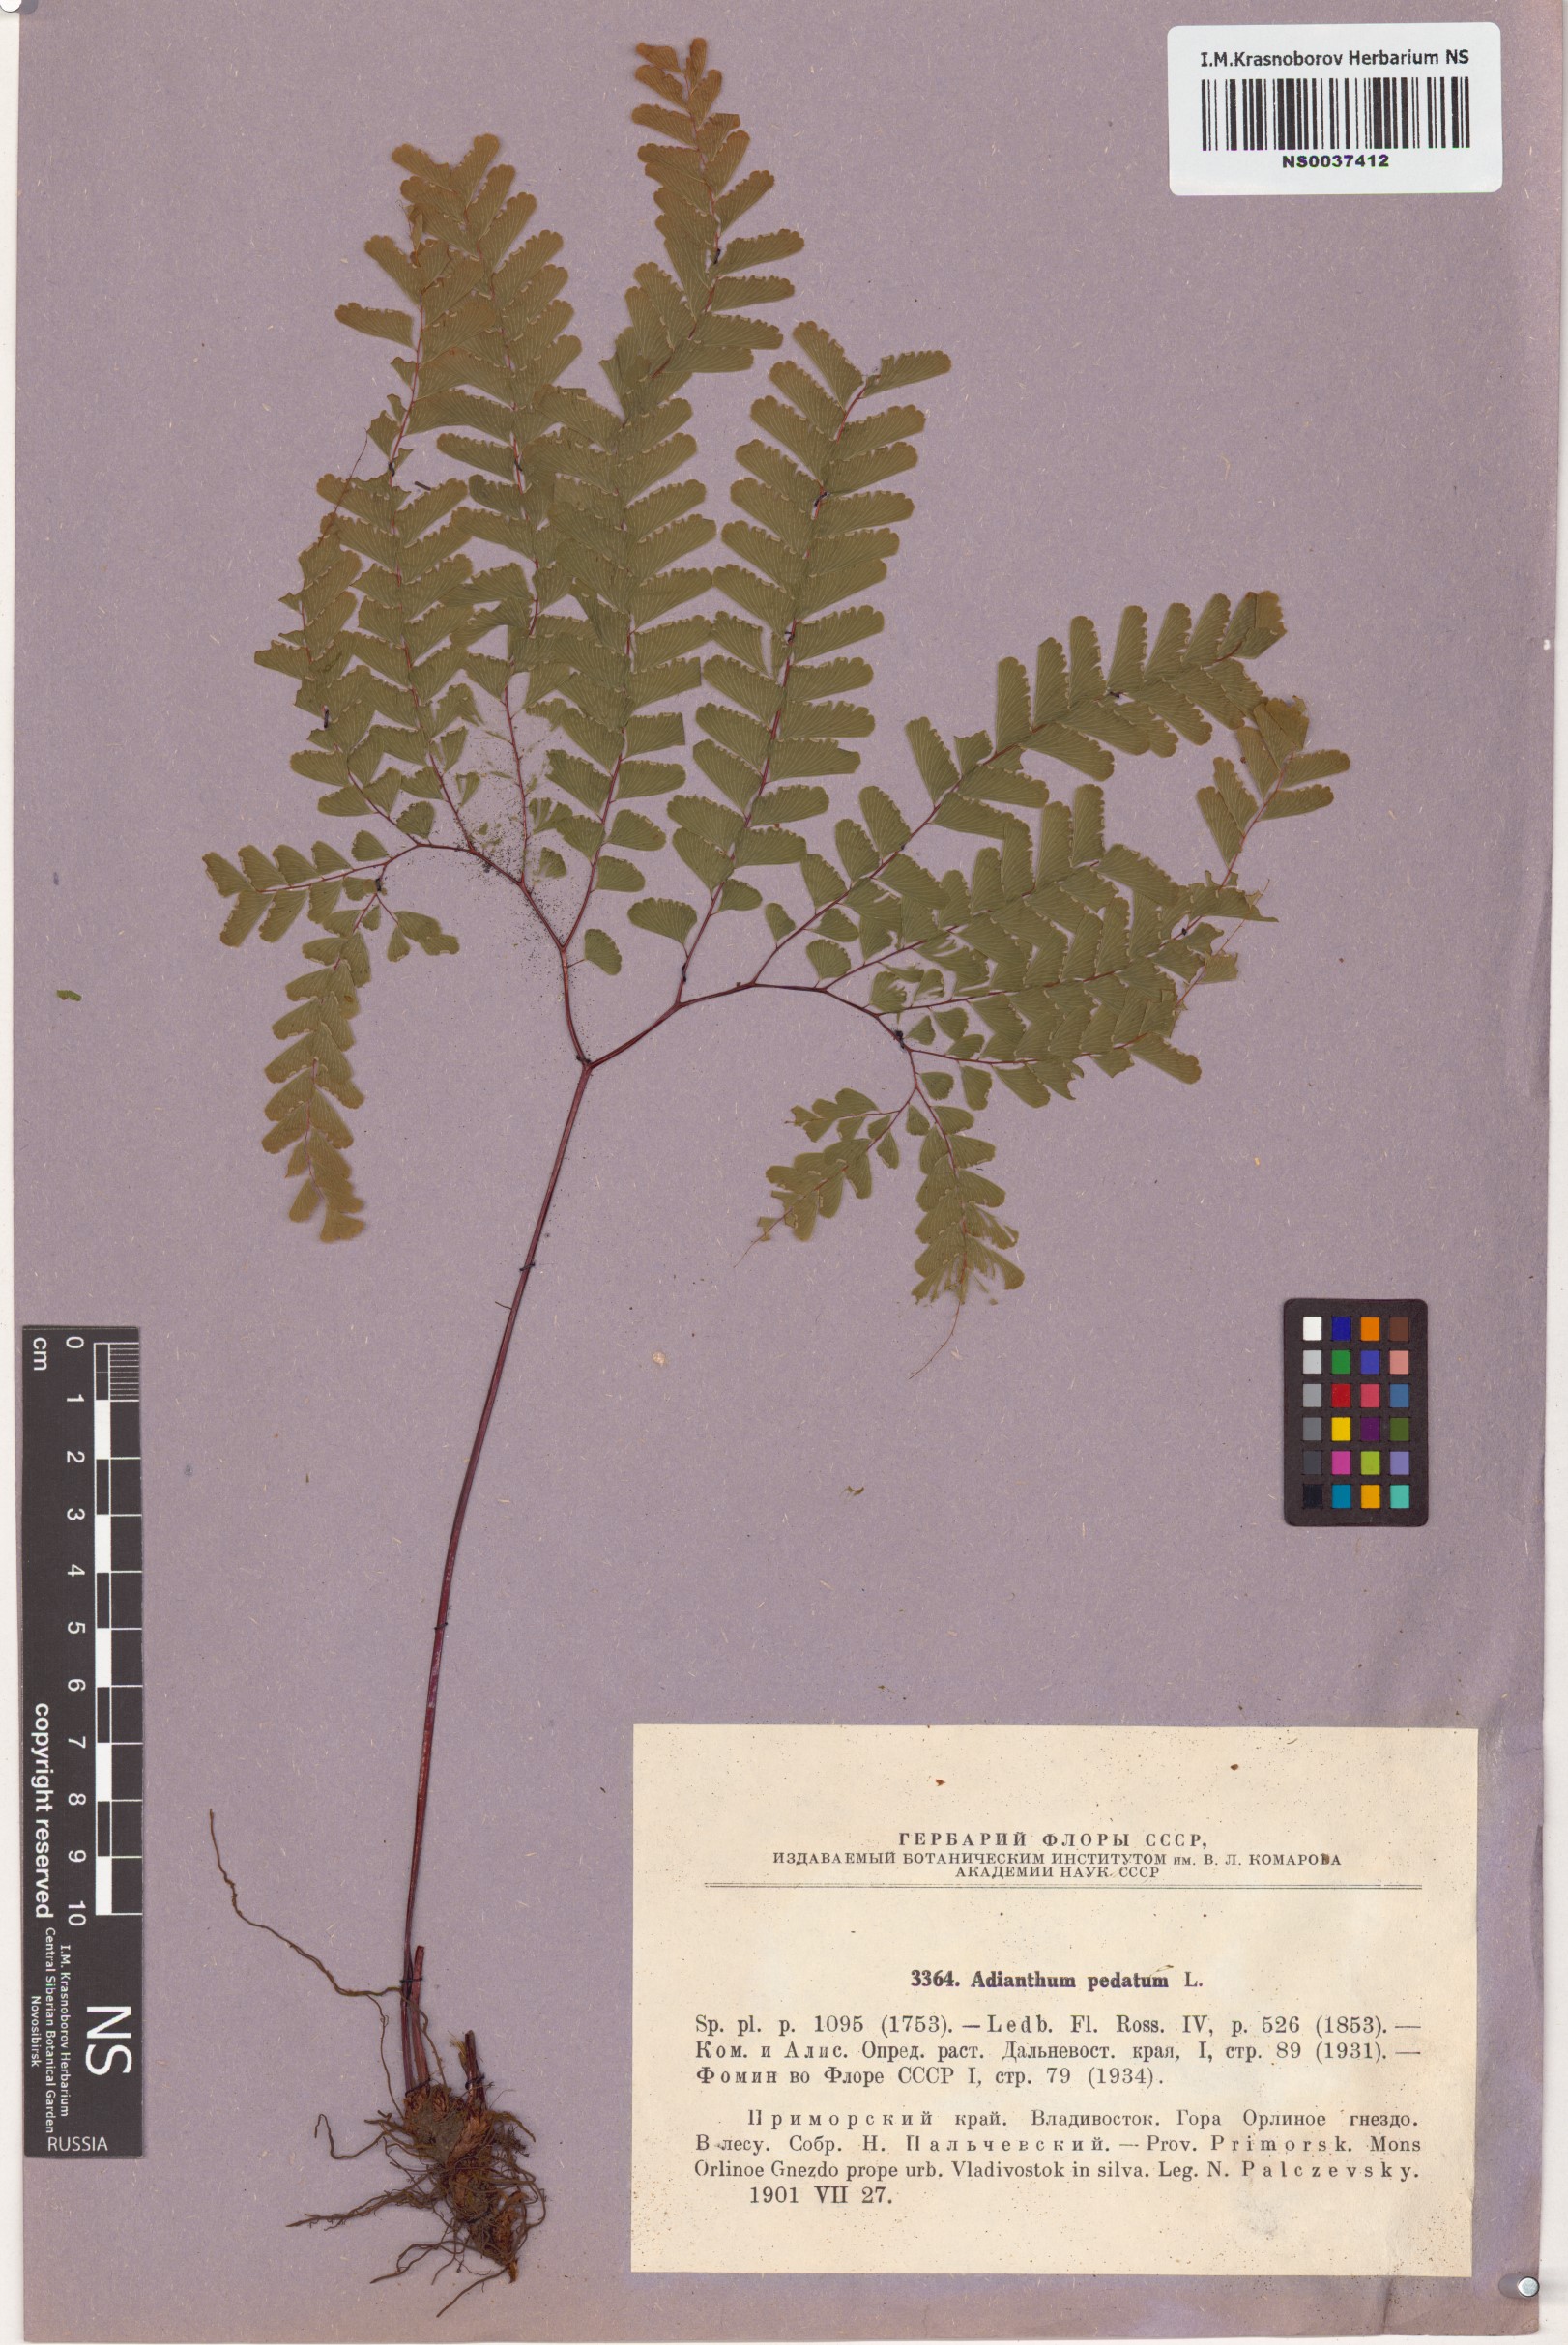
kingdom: Plantae
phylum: Tracheophyta
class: Polypodiopsida
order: Polypodiales
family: Pteridaceae
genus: Adiantum
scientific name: Adiantum pedatum
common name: Five-finger fern
